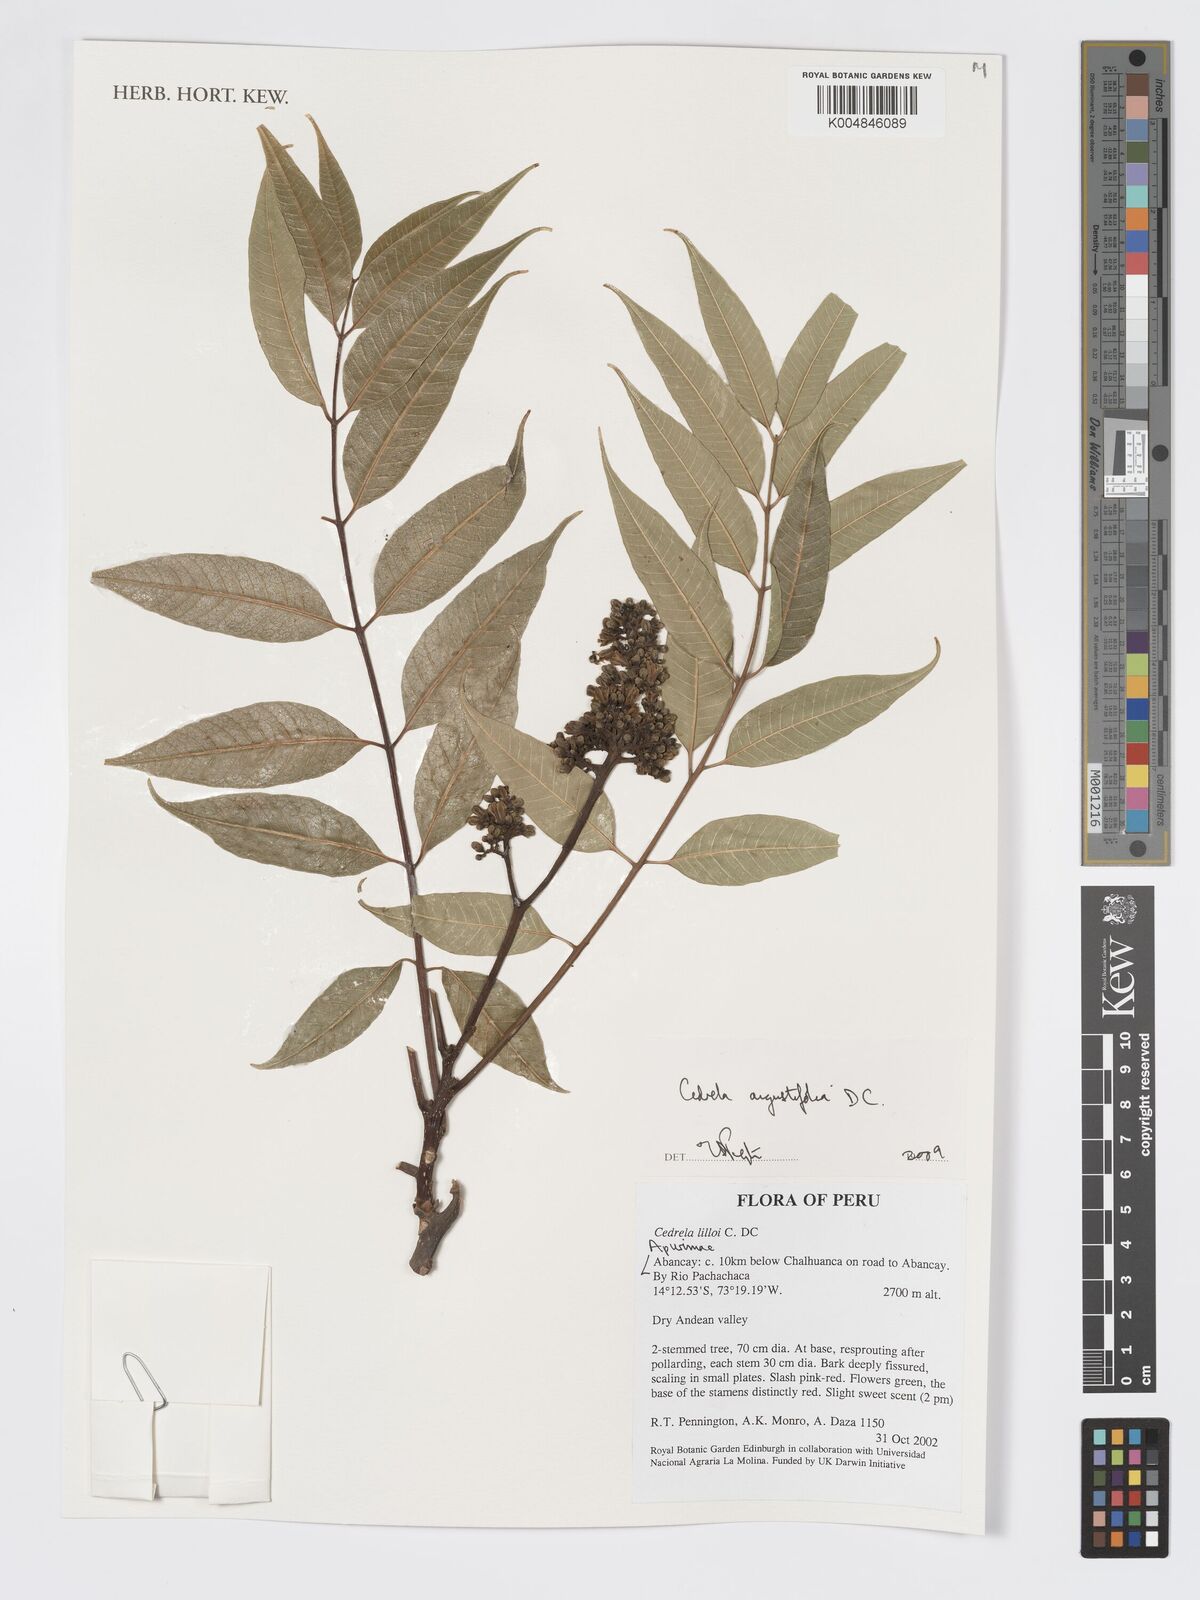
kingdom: Plantae
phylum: Tracheophyta
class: Magnoliopsida
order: Sapindales
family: Meliaceae
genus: Cedrela
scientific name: Cedrela odorata
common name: Red cedar
